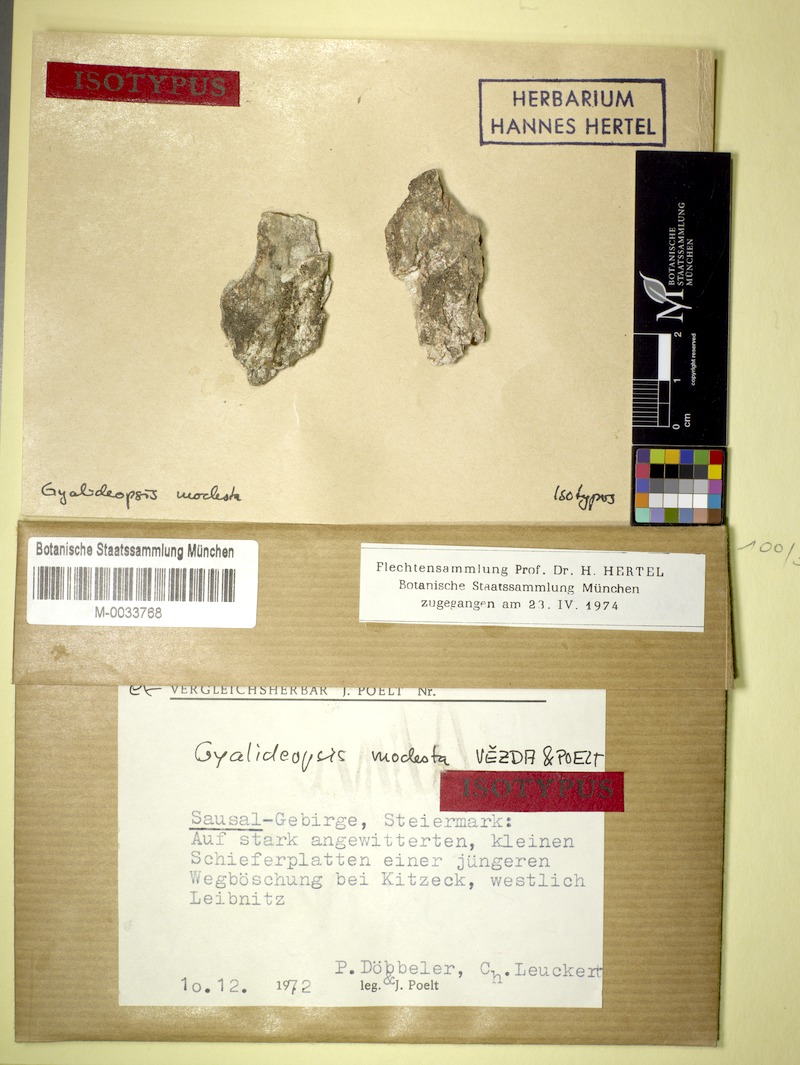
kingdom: Fungi
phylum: Ascomycota
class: Lecanoromycetes
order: Ostropales
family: Gomphillaceae
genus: Gyalideopsis
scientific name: Gyalideopsis
